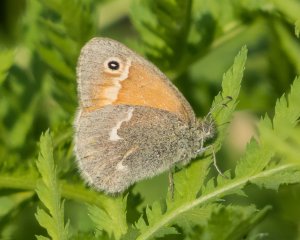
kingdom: Animalia
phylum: Arthropoda
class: Insecta
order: Lepidoptera
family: Nymphalidae
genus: Coenonympha
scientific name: Coenonympha tullia
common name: Large Heath
